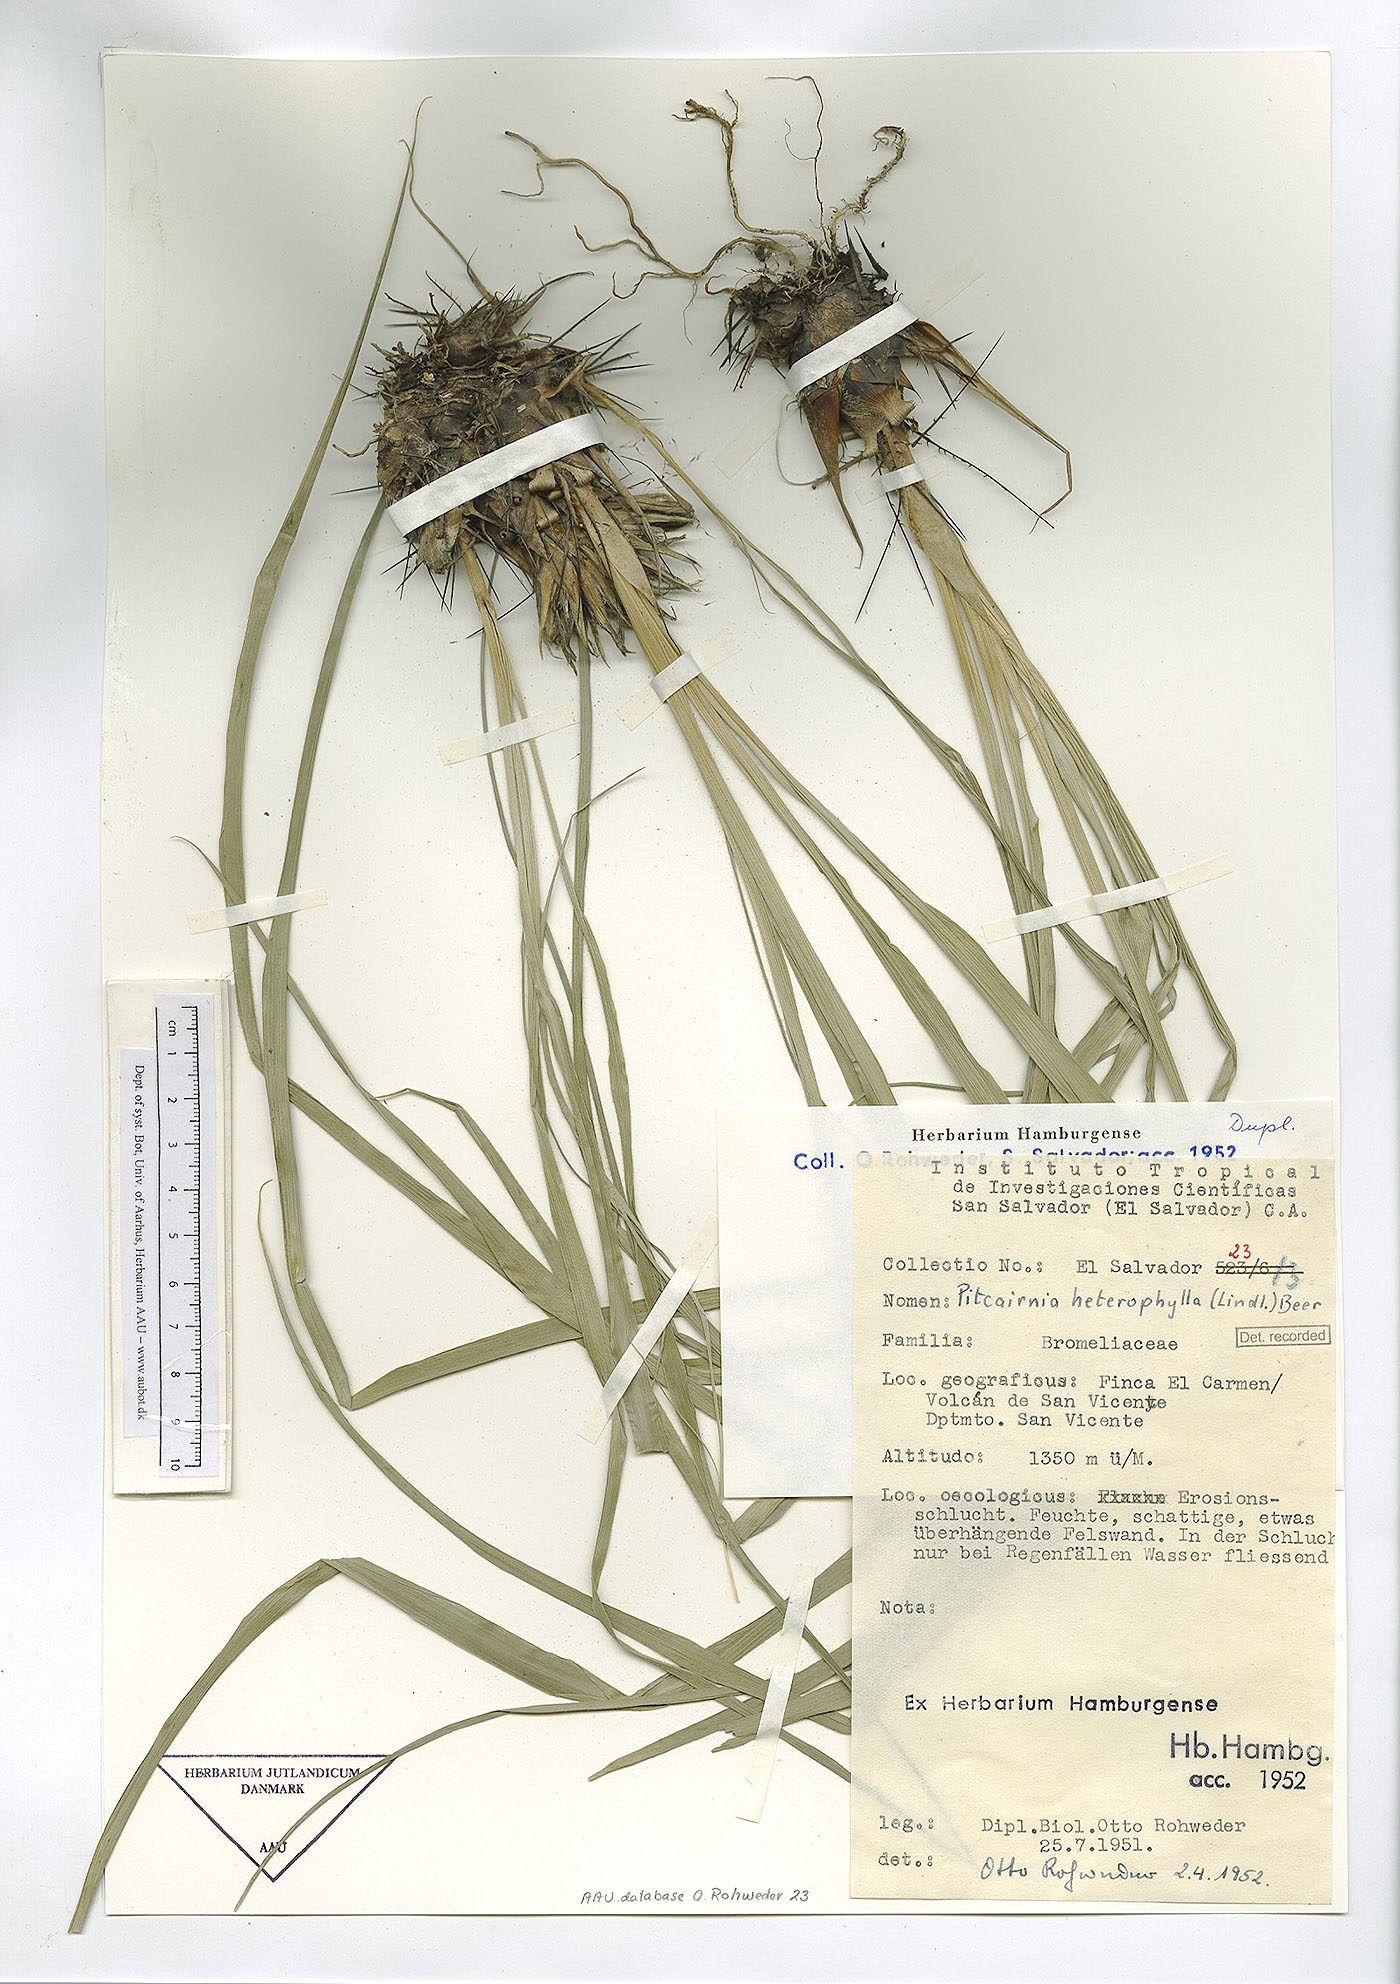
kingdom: Plantae
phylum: Tracheophyta
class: Liliopsida
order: Poales
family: Bromeliaceae
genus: Pitcairnia
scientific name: Pitcairnia heterophylla
